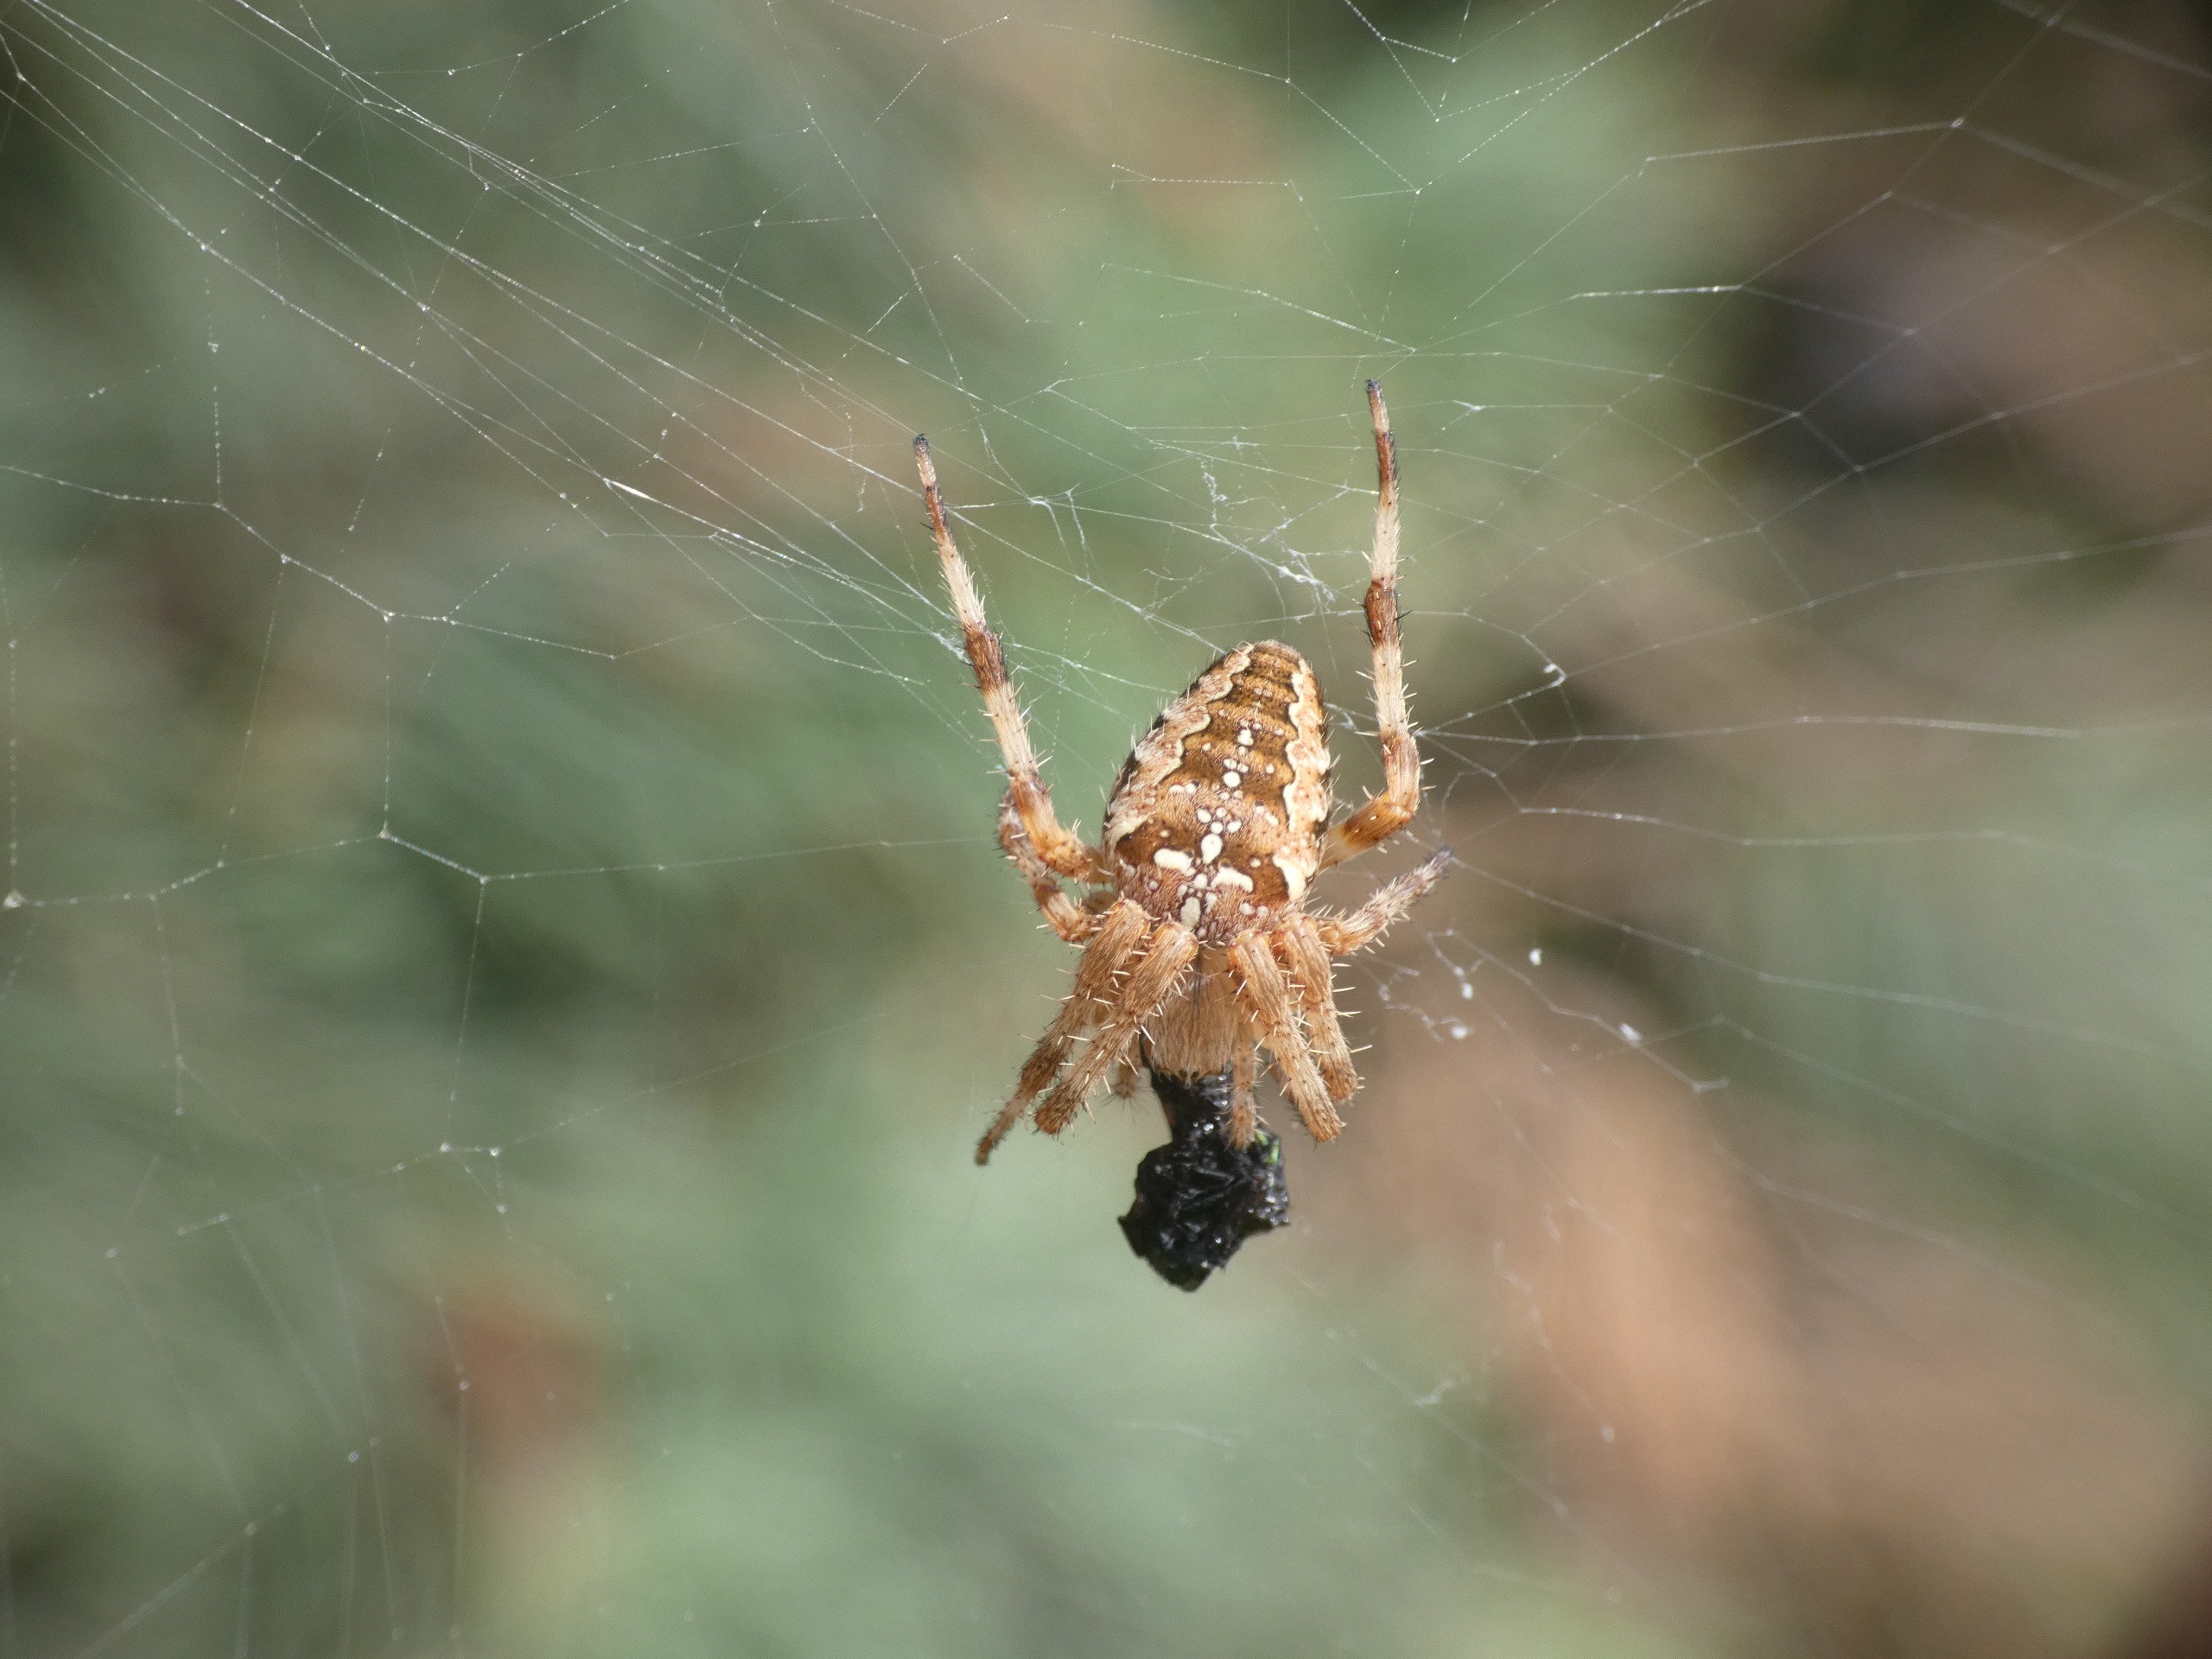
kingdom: Animalia
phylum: Arthropoda
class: Arachnida
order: Araneae
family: Araneidae
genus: Araneus
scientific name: Araneus diadematus
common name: Korsedderkop
